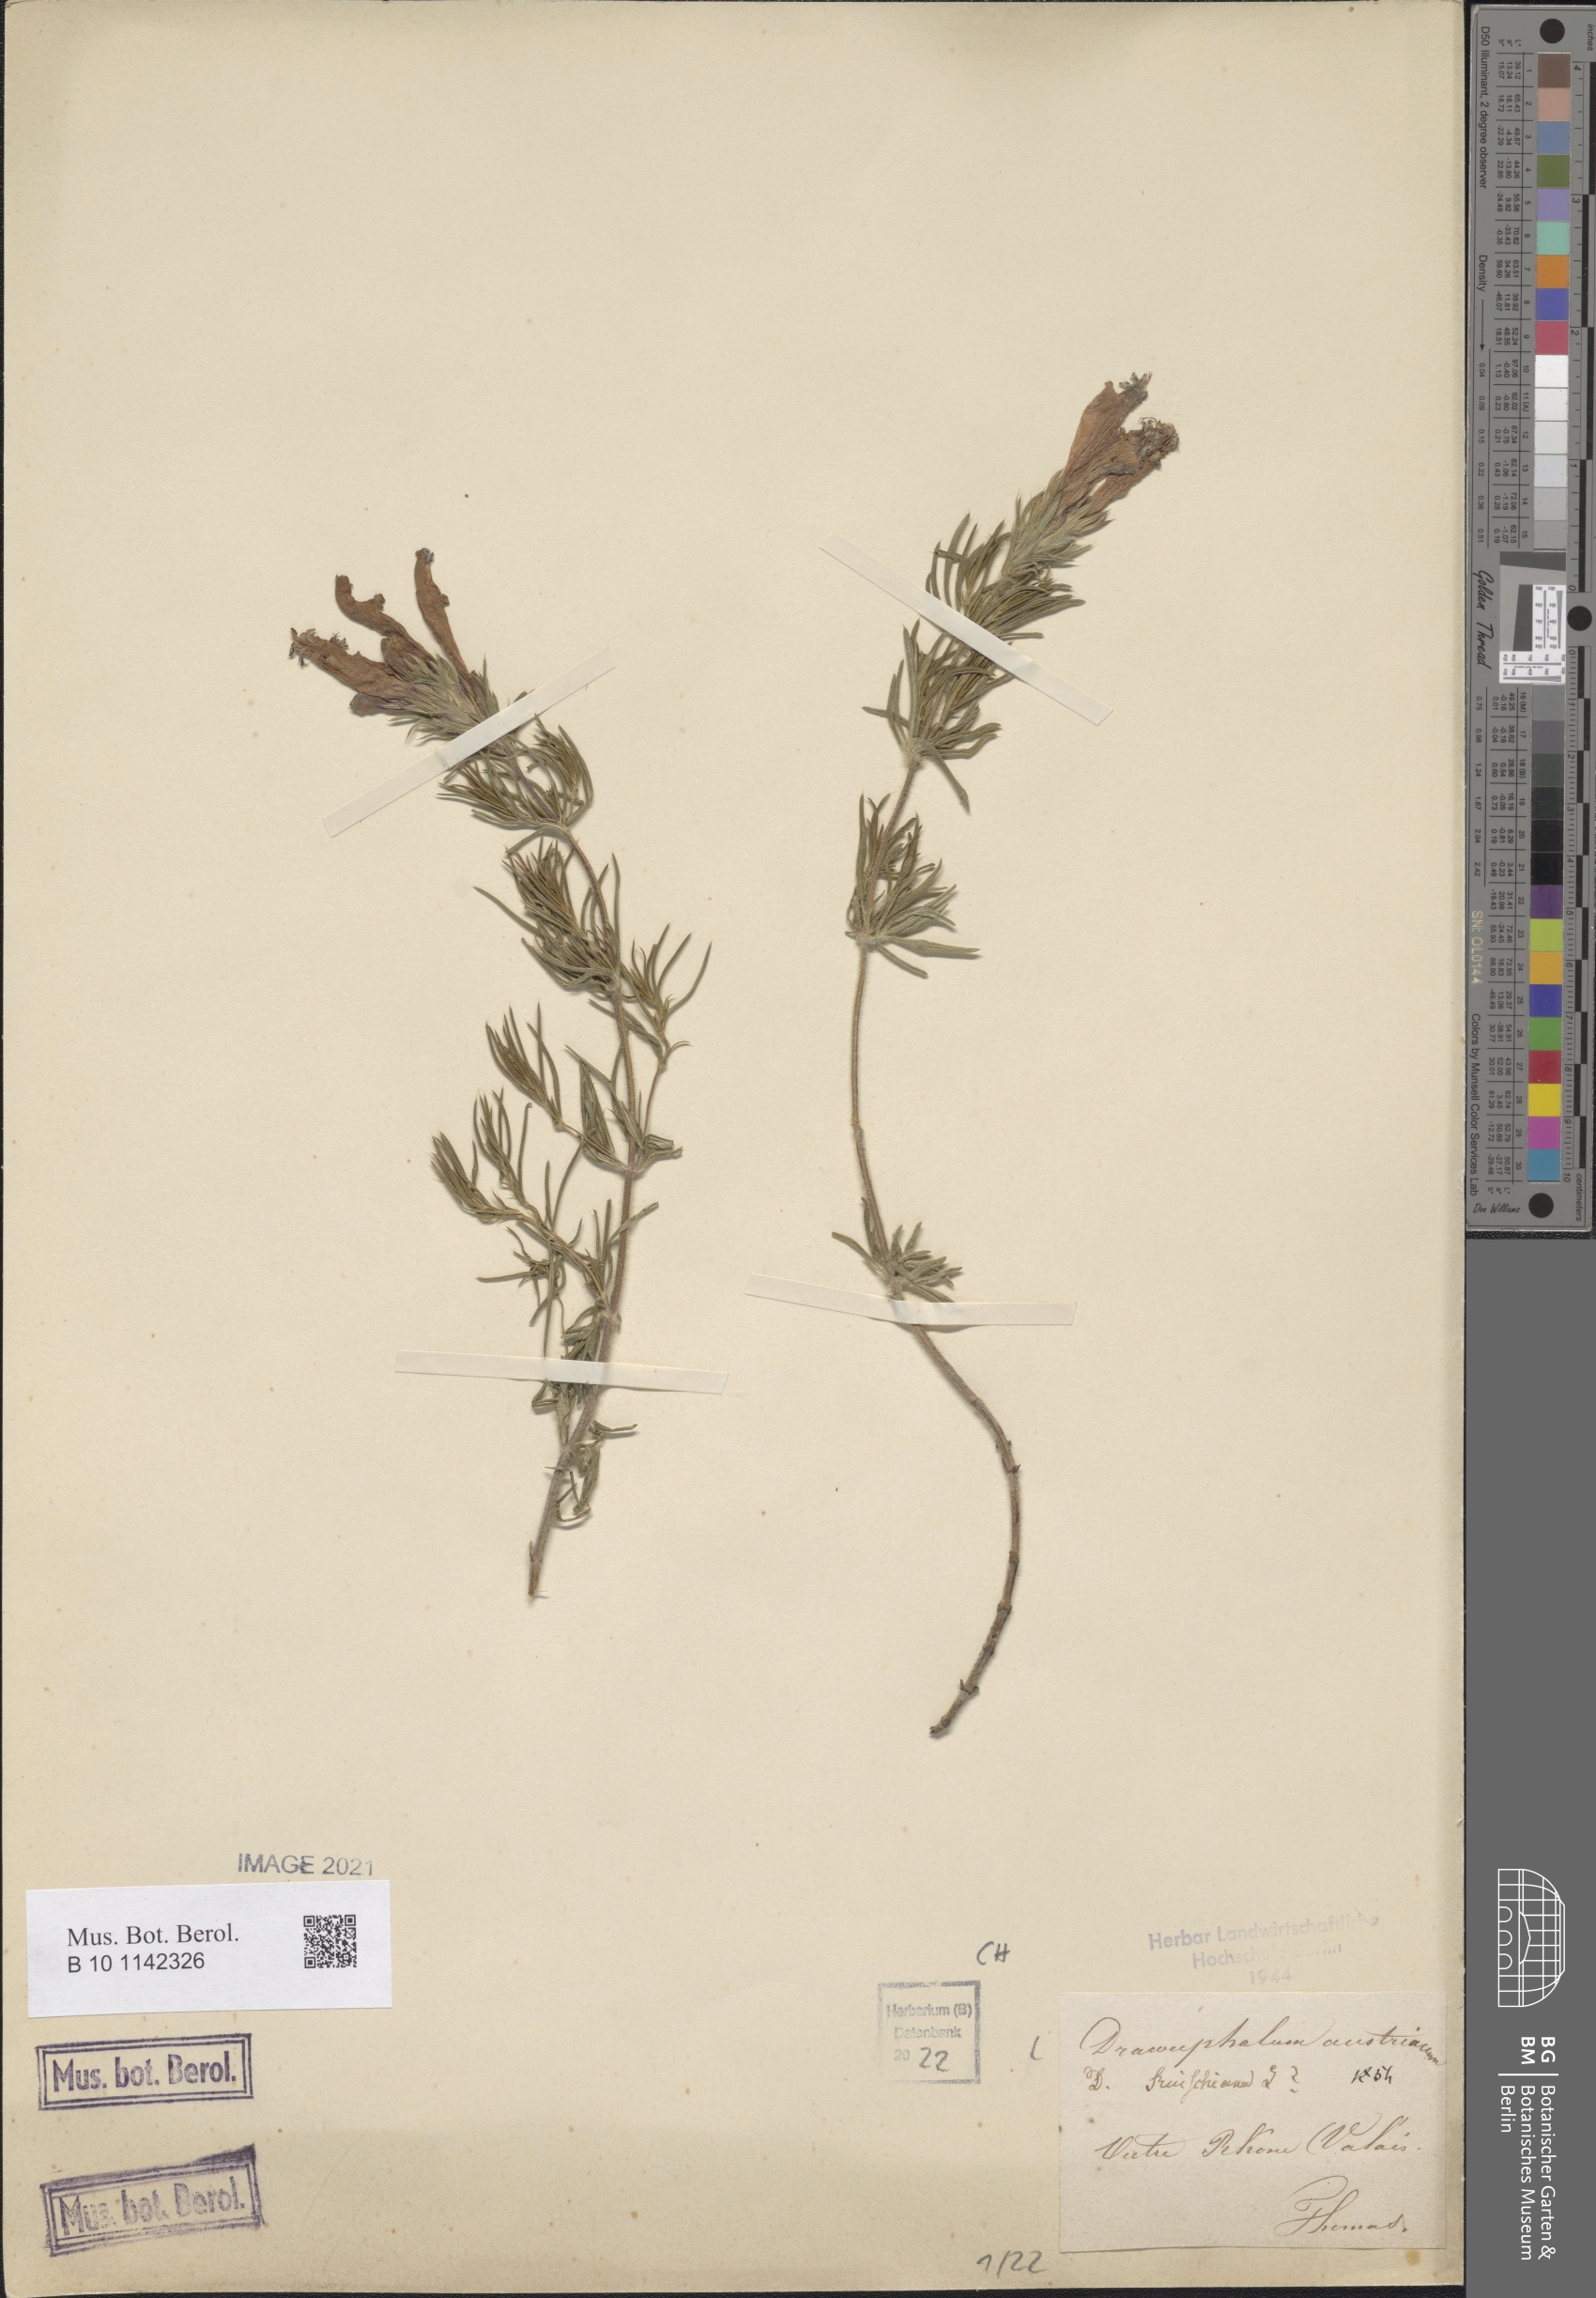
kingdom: Plantae
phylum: Tracheophyta
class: Magnoliopsida
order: Lamiales
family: Lamiaceae
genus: Dracocephalum
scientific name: Dracocephalum austriacum
